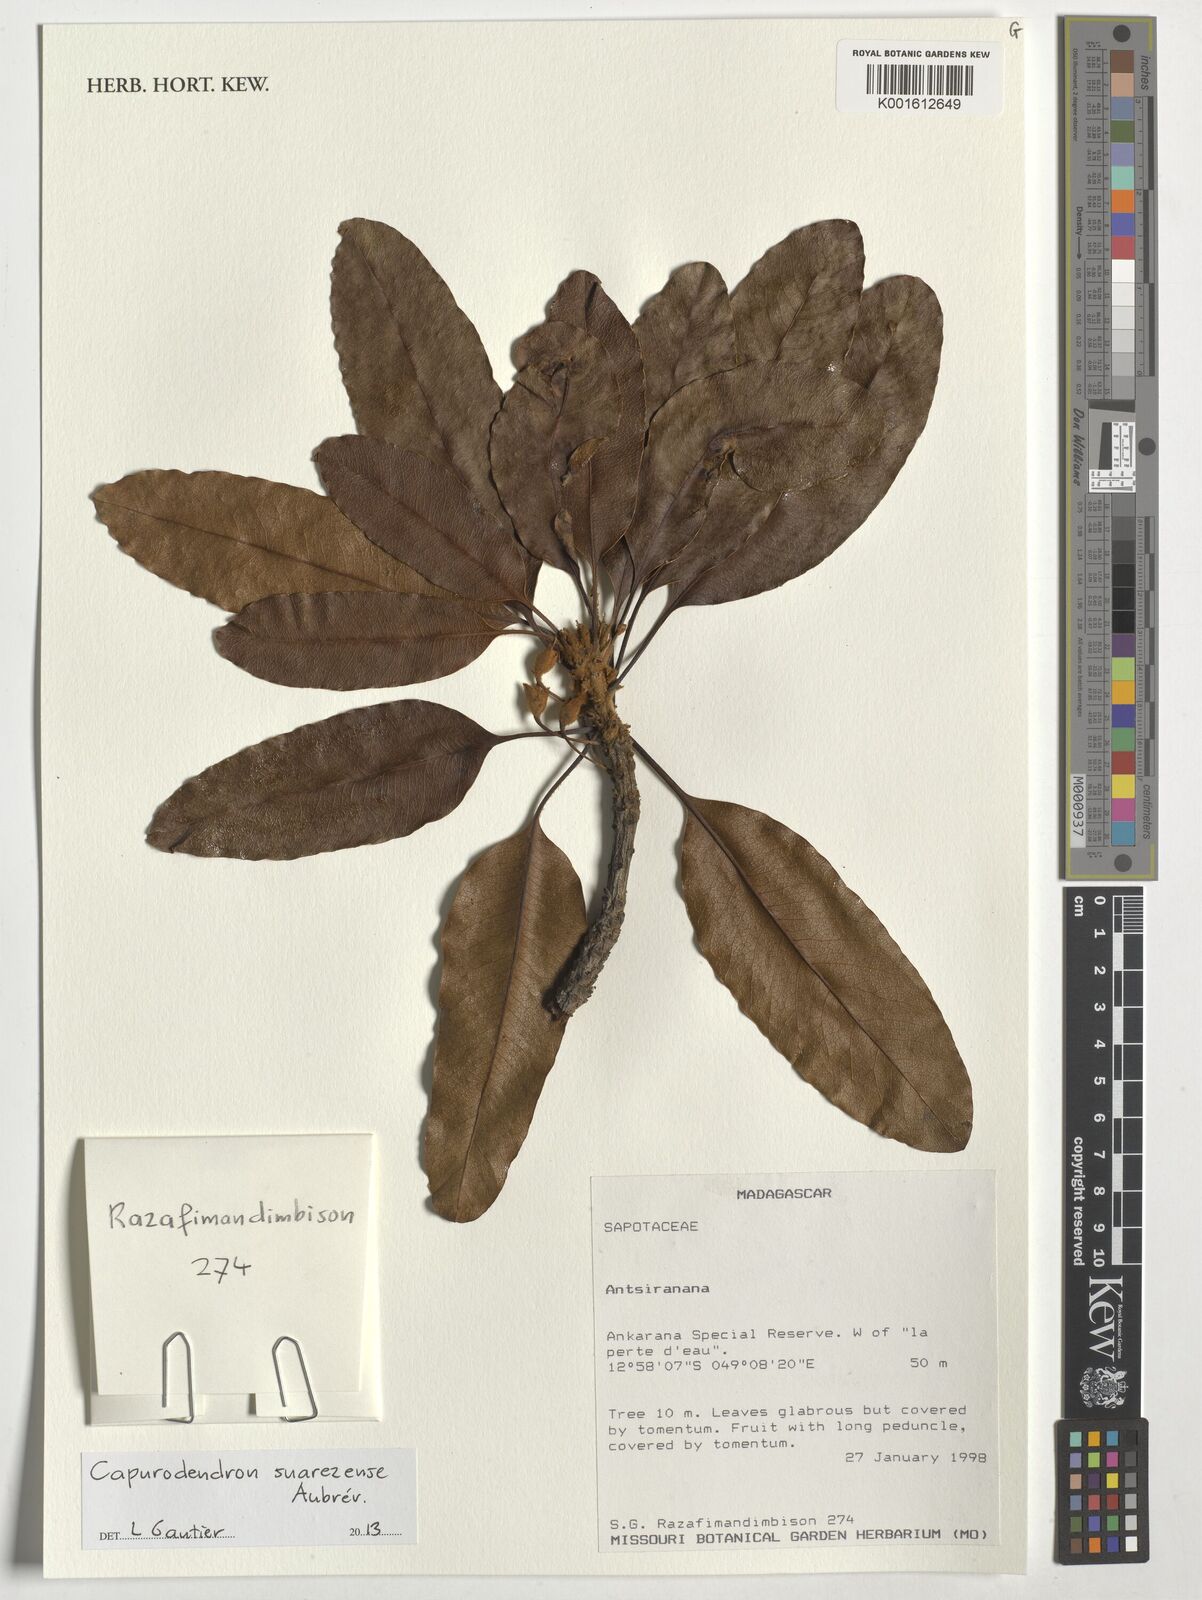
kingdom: Plantae
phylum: Tracheophyta
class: Magnoliopsida
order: Ericales
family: Sapotaceae
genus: Capurodendron
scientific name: Capurodendron suarezense
